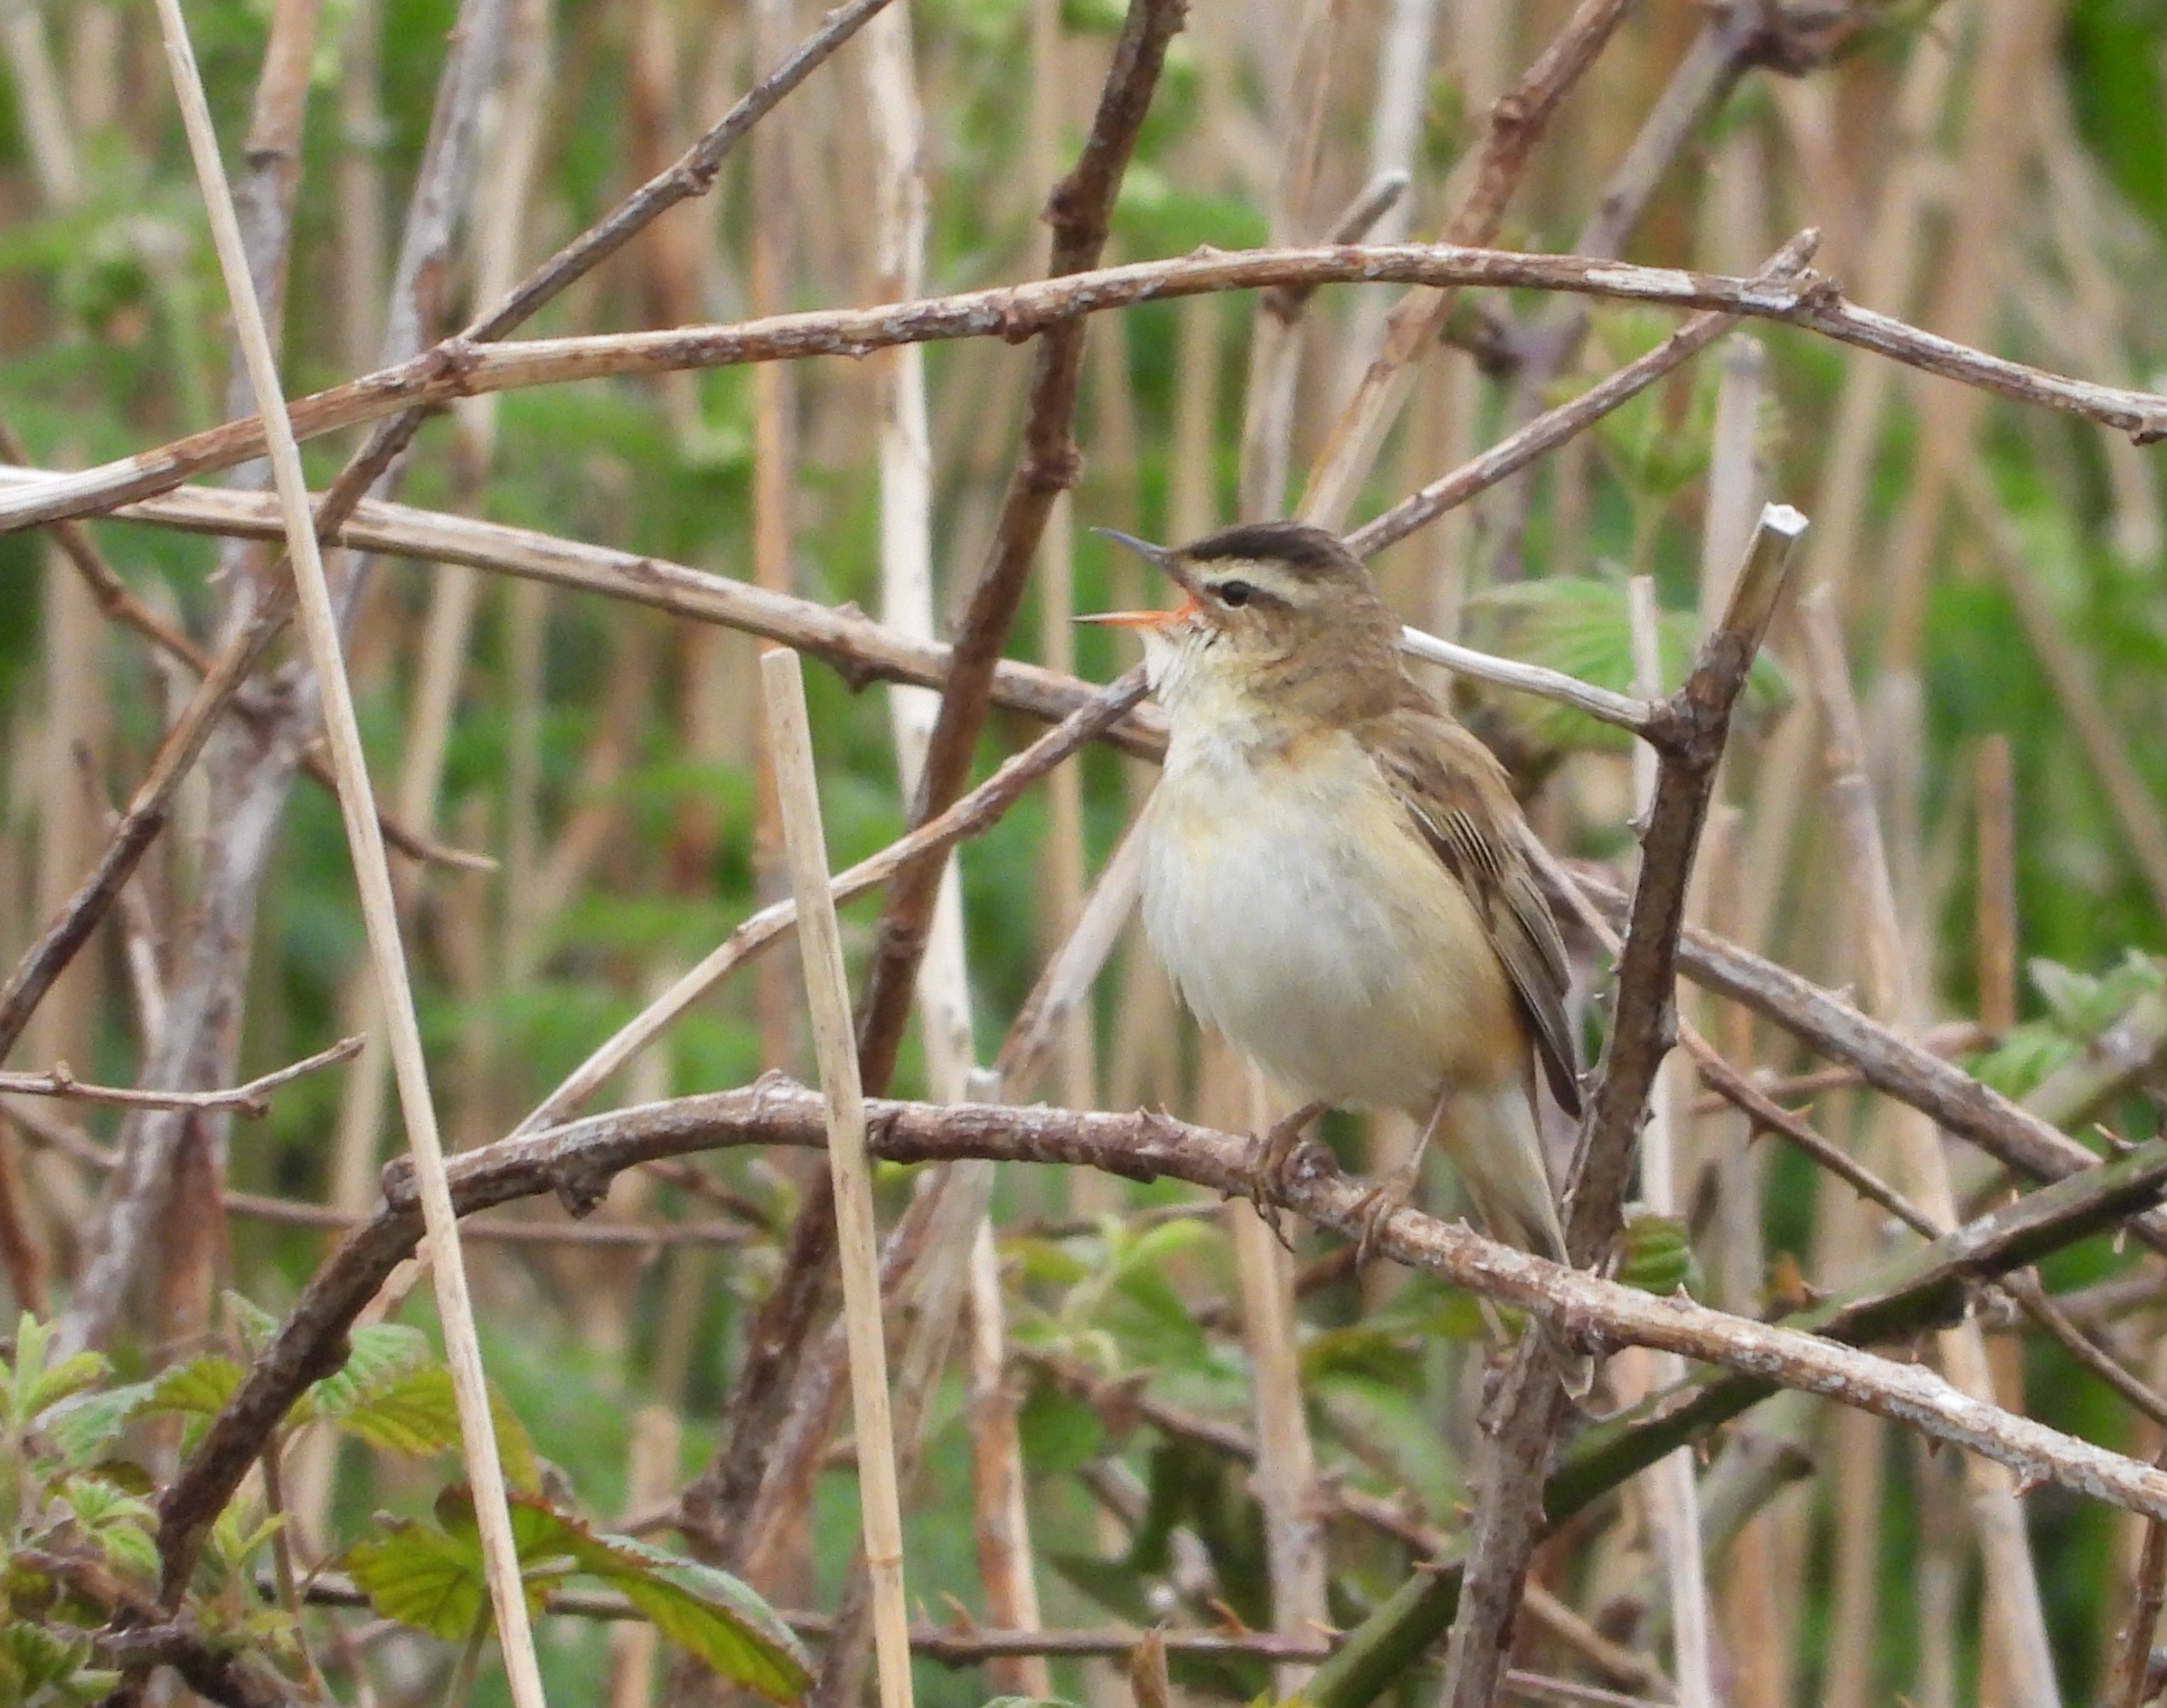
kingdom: Animalia
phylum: Chordata
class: Aves
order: Passeriformes
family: Acrocephalidae
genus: Acrocephalus
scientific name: Acrocephalus schoenobaenus
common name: Sivsanger
